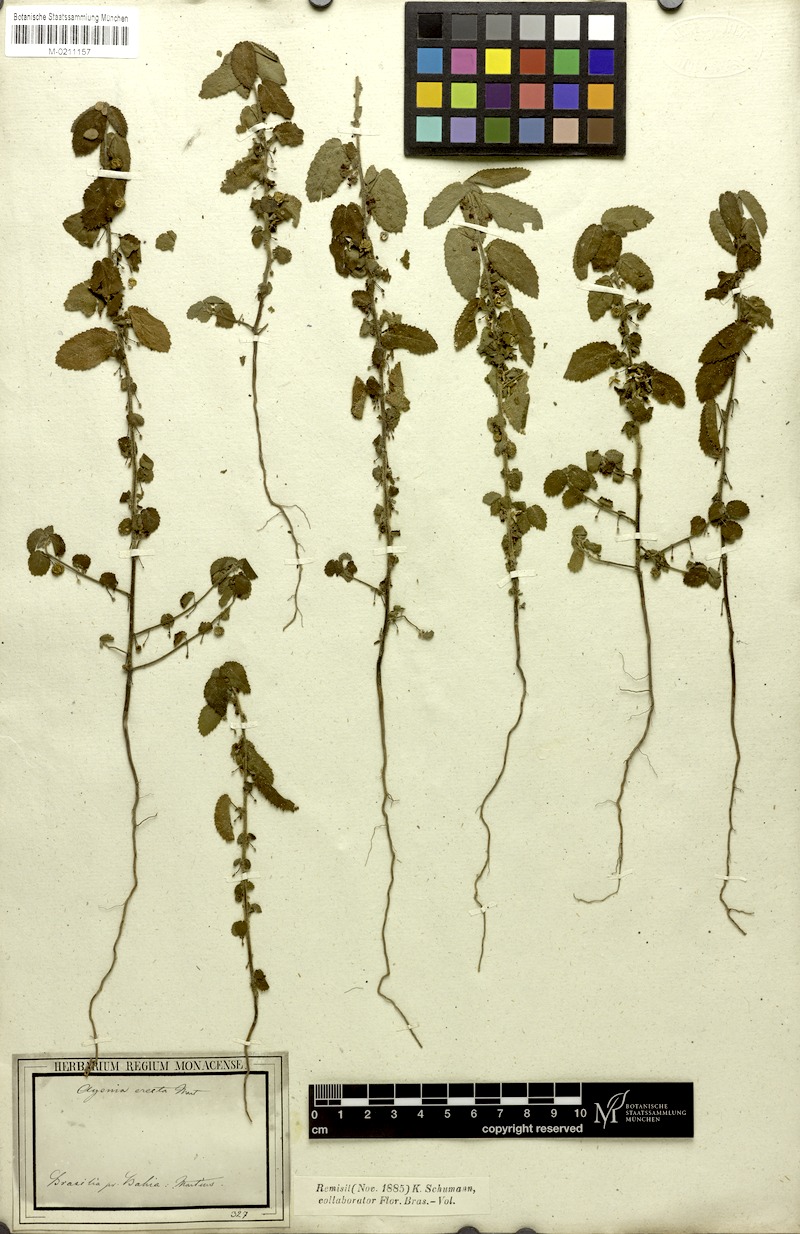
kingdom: Plantae
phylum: Tracheophyta
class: Magnoliopsida
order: Malvales
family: Malvaceae
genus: Ayenia
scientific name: Ayenia erecta
